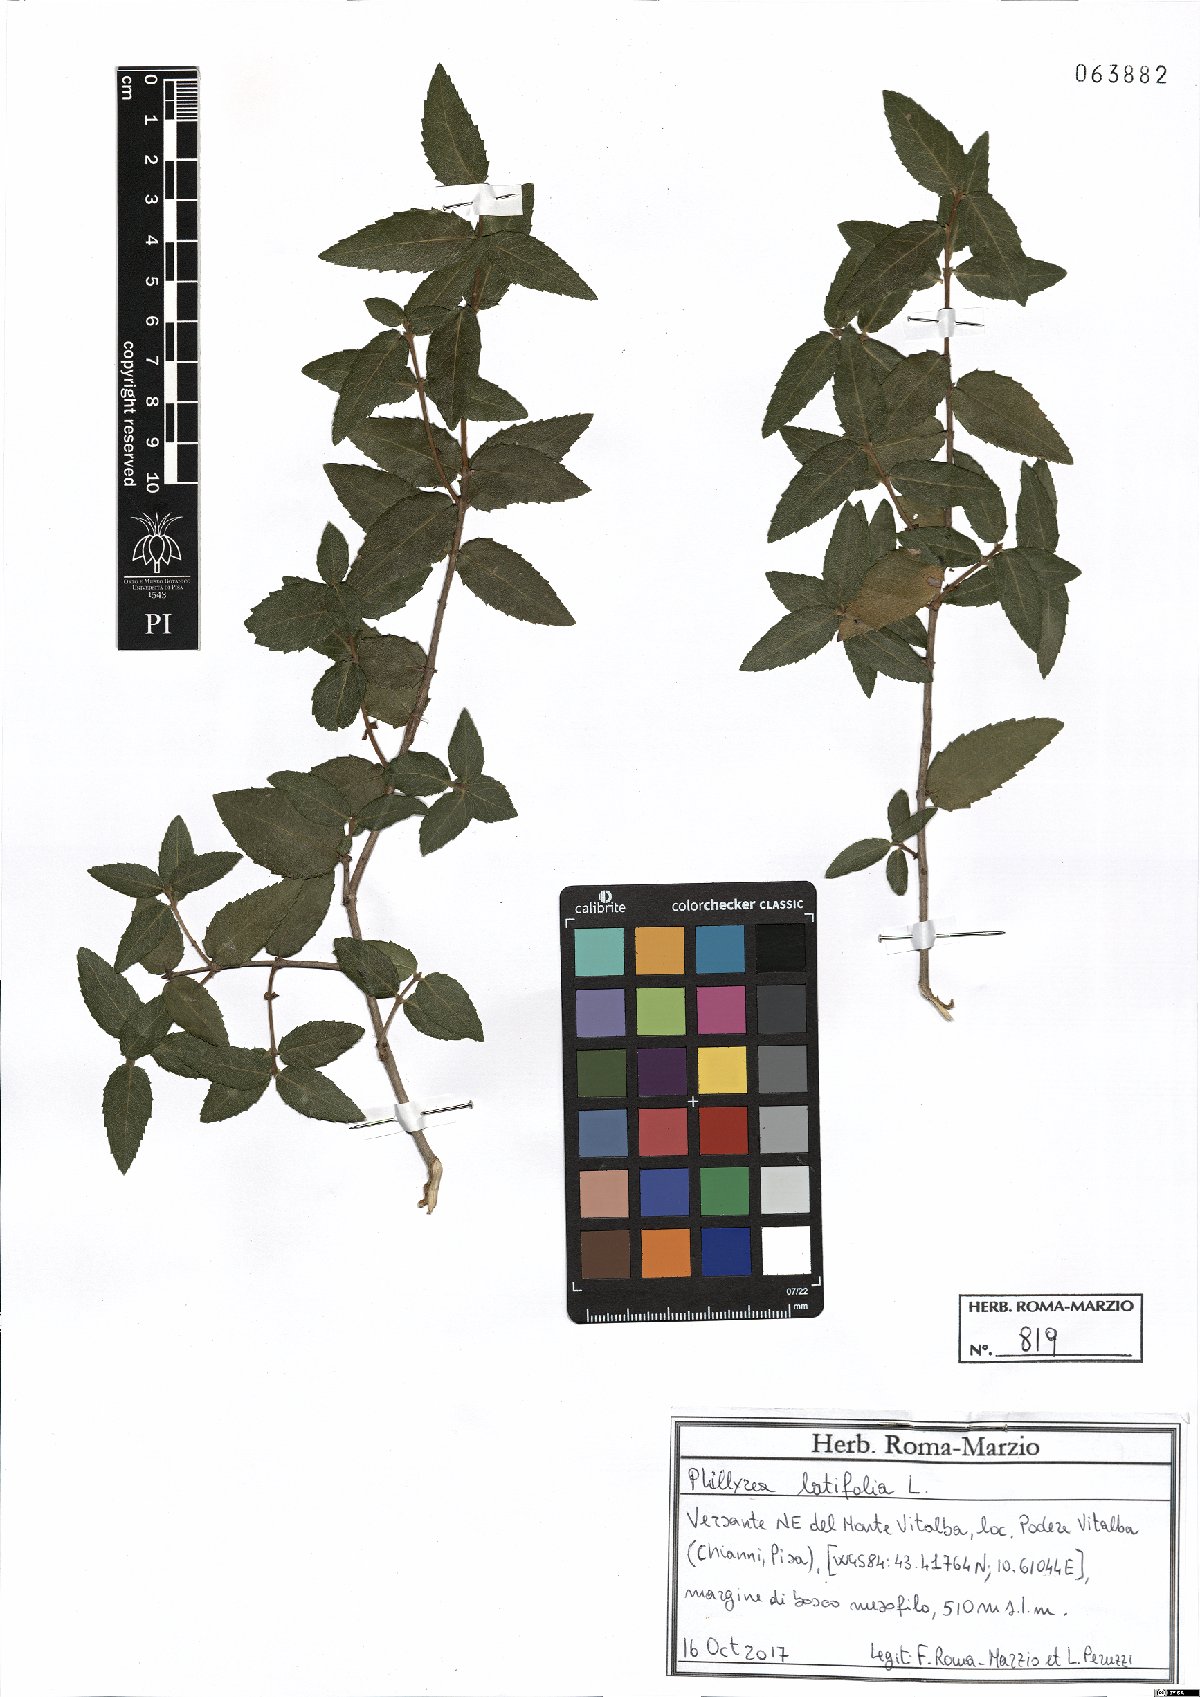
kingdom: Plantae
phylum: Tracheophyta
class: Magnoliopsida
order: Lamiales
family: Oleaceae
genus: Phillyrea
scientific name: Phillyrea latifolia
